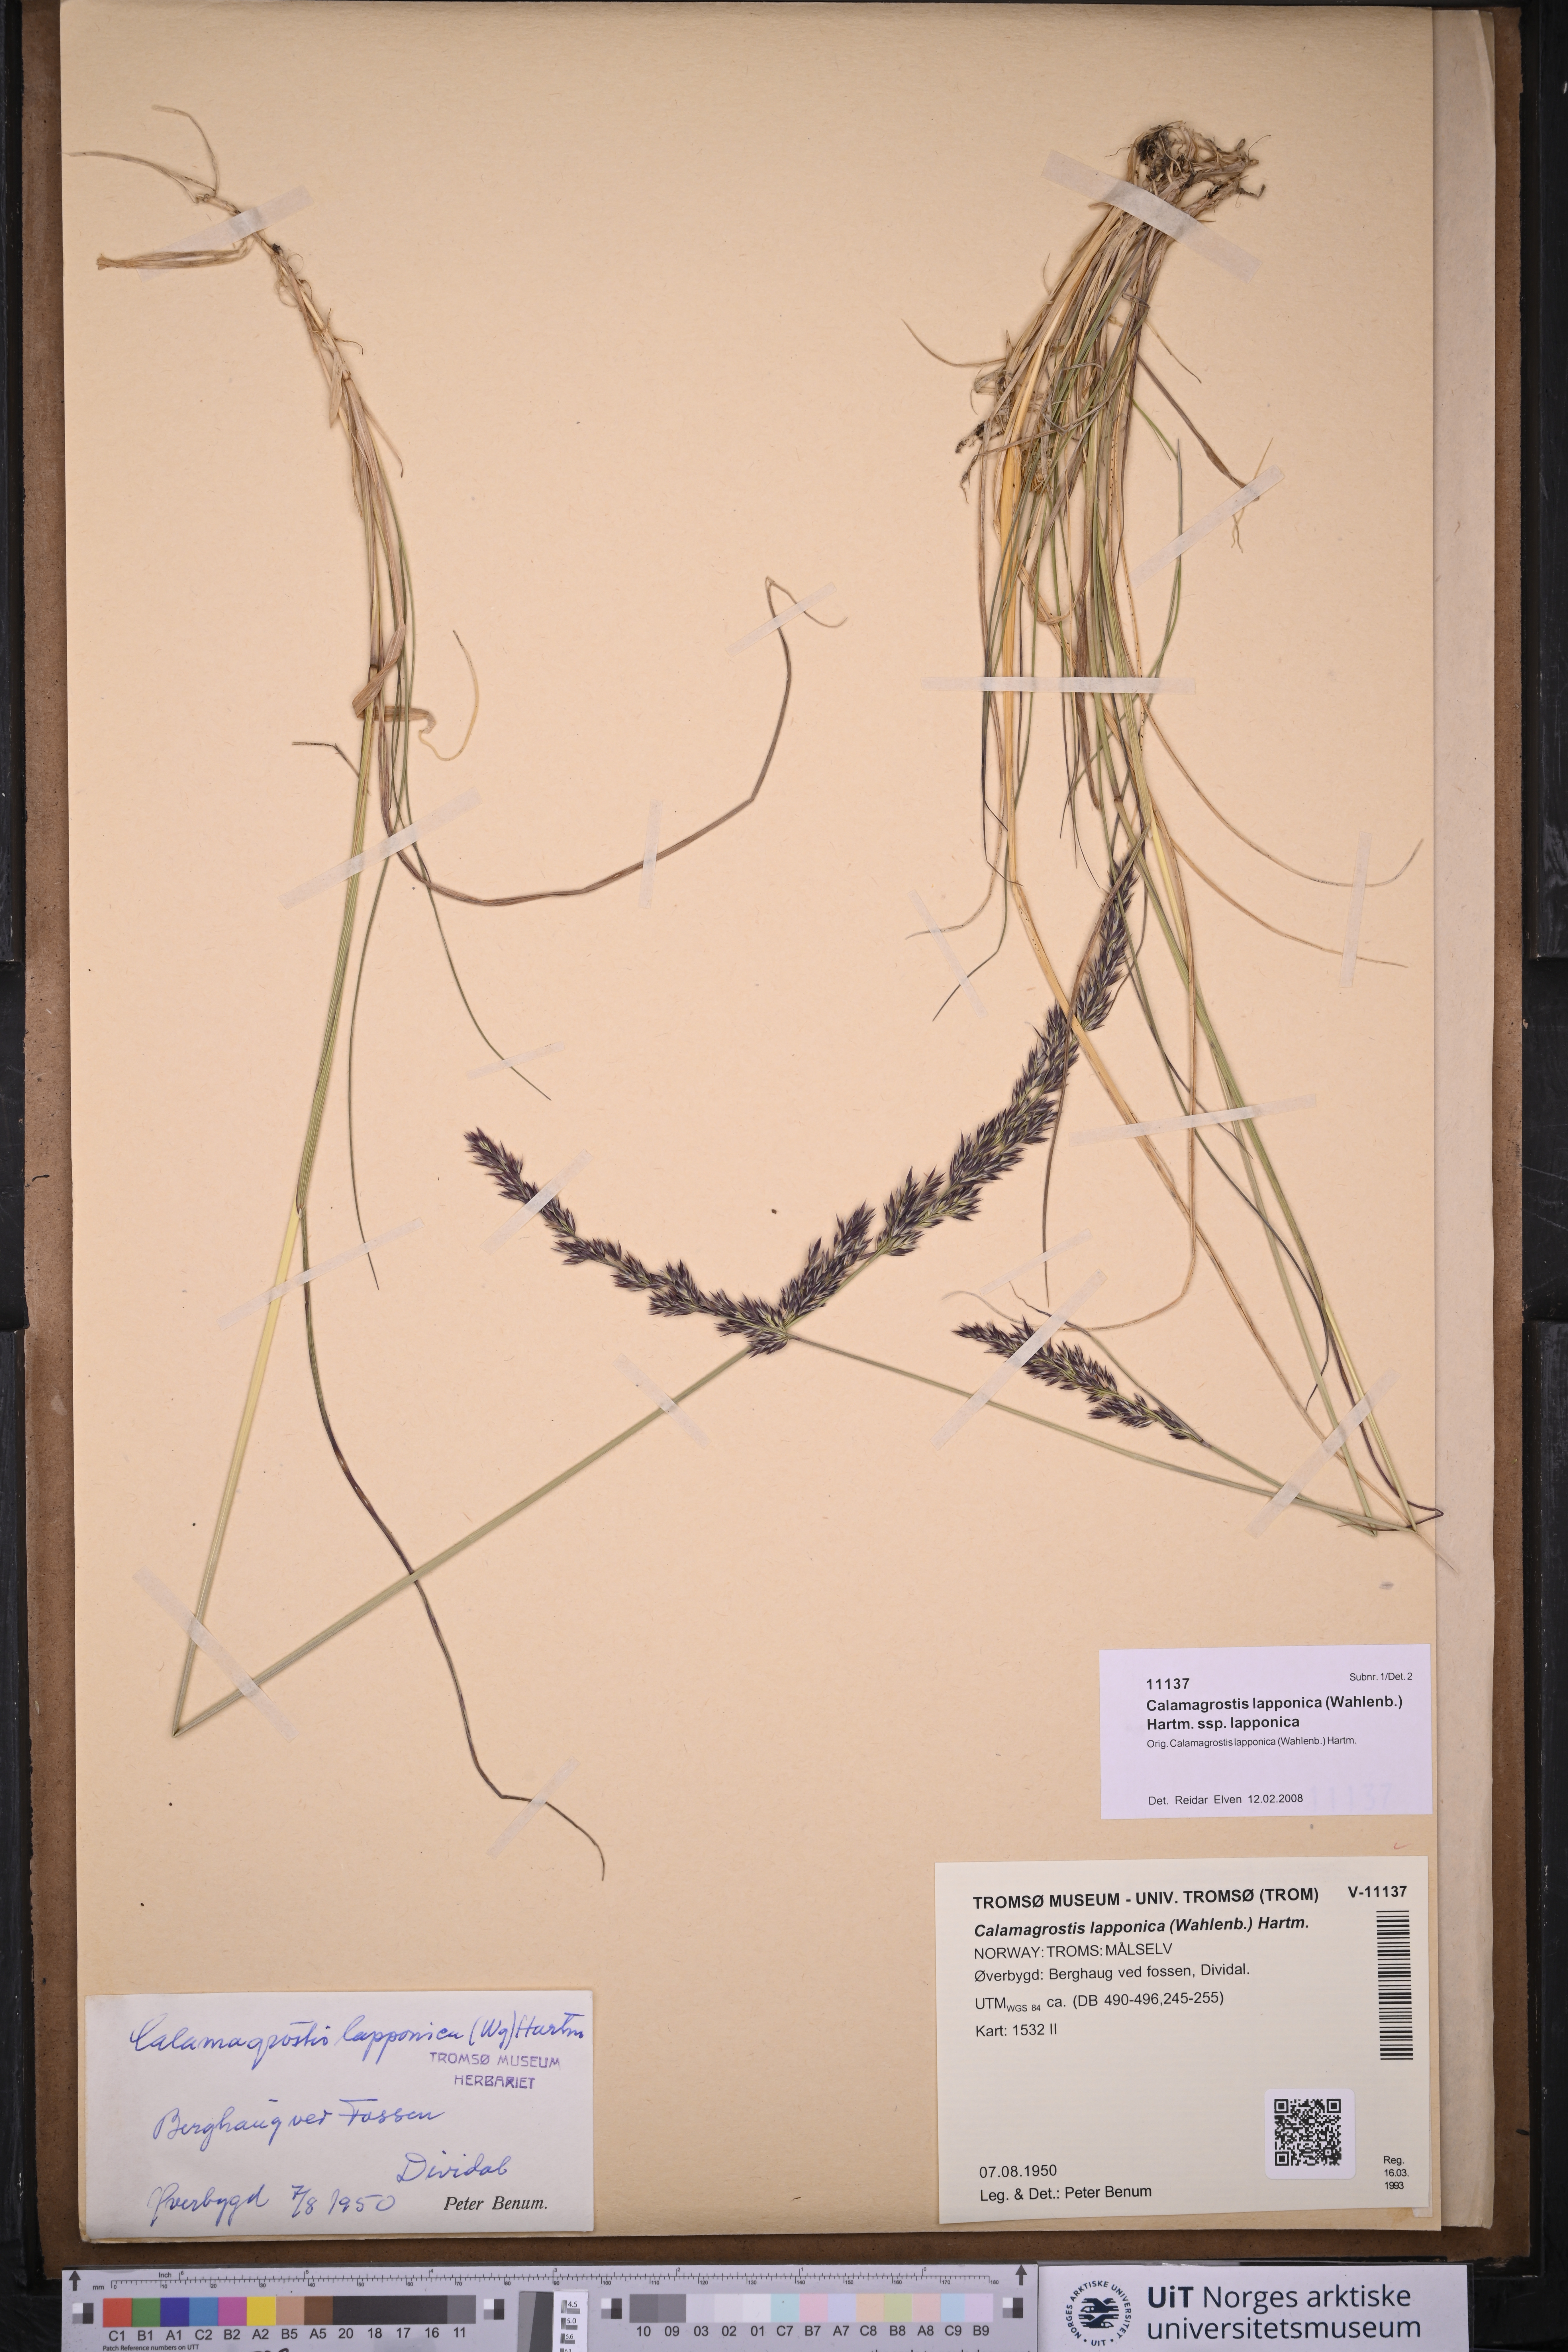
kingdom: Plantae
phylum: Tracheophyta
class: Liliopsida
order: Poales
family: Poaceae
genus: Calamagrostis
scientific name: Calamagrostis lapponica
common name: Lapland reedgrass
